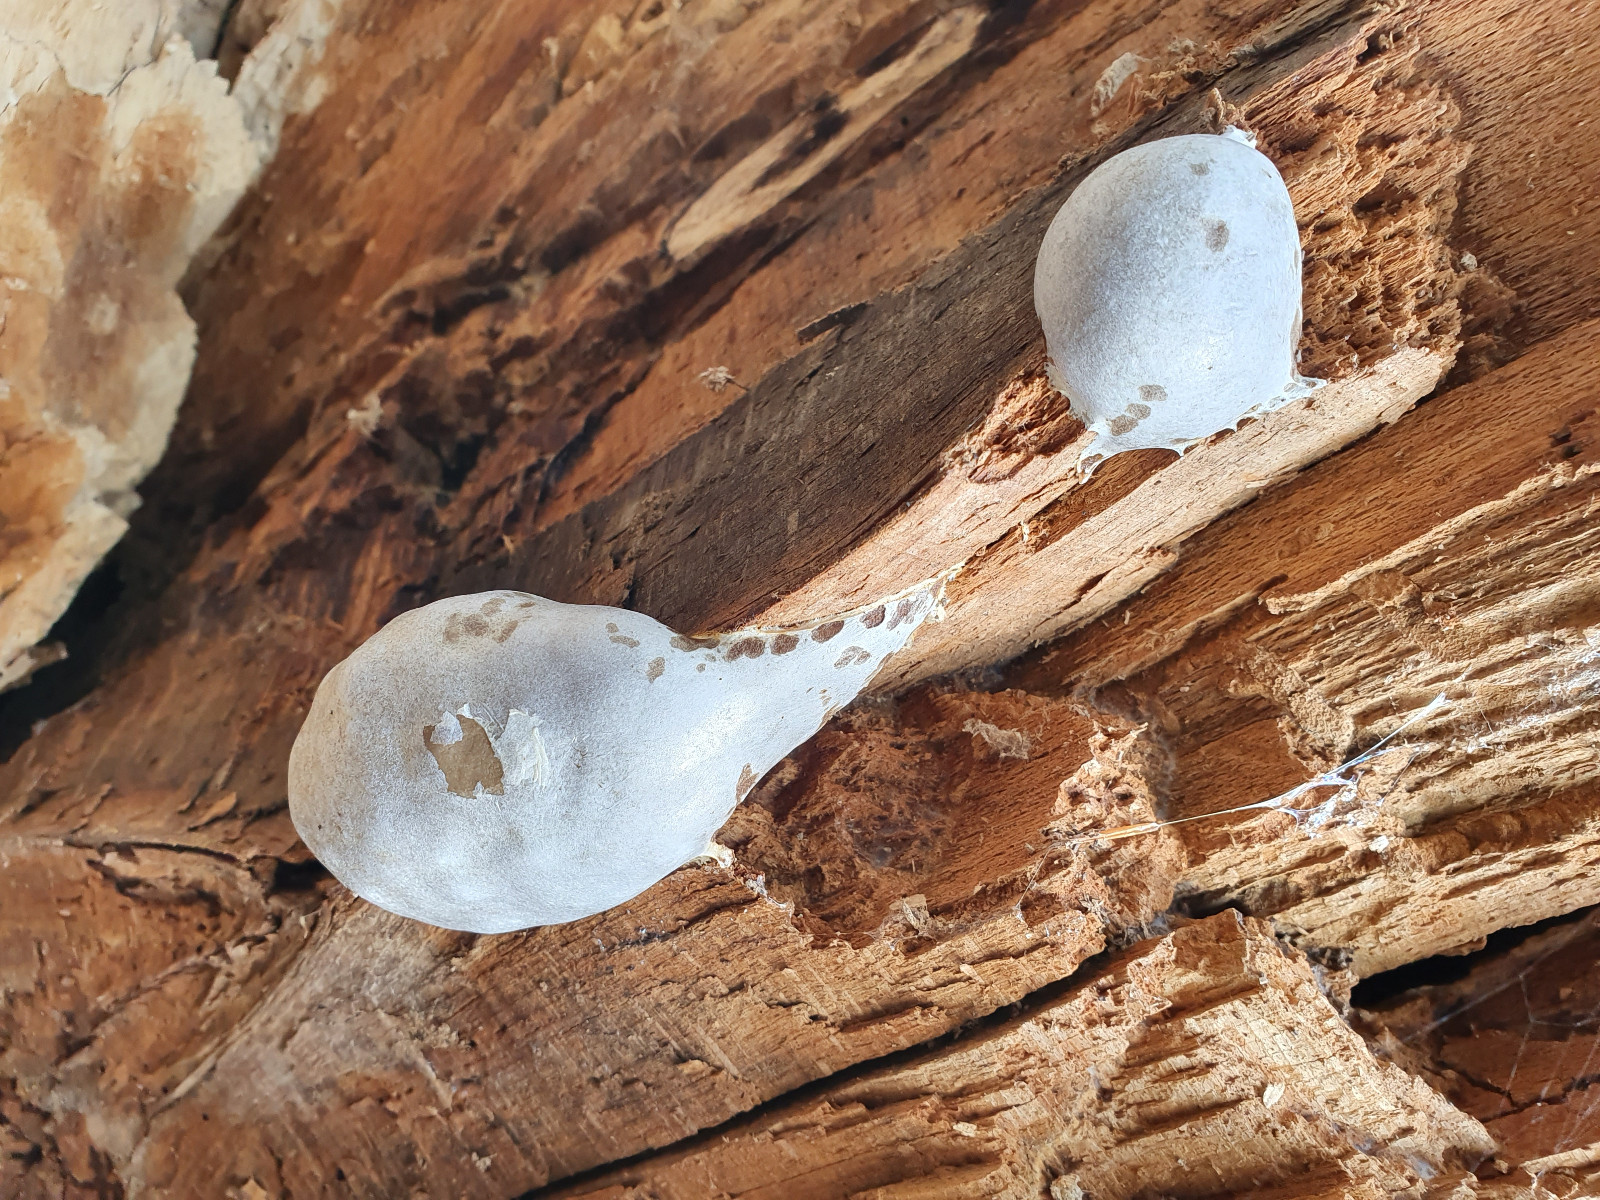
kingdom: Protozoa
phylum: Mycetozoa
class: Myxomycetes
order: Cribrariales
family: Tubiferaceae
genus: Reticularia
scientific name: Reticularia lycoperdon
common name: skinnende støvpude
